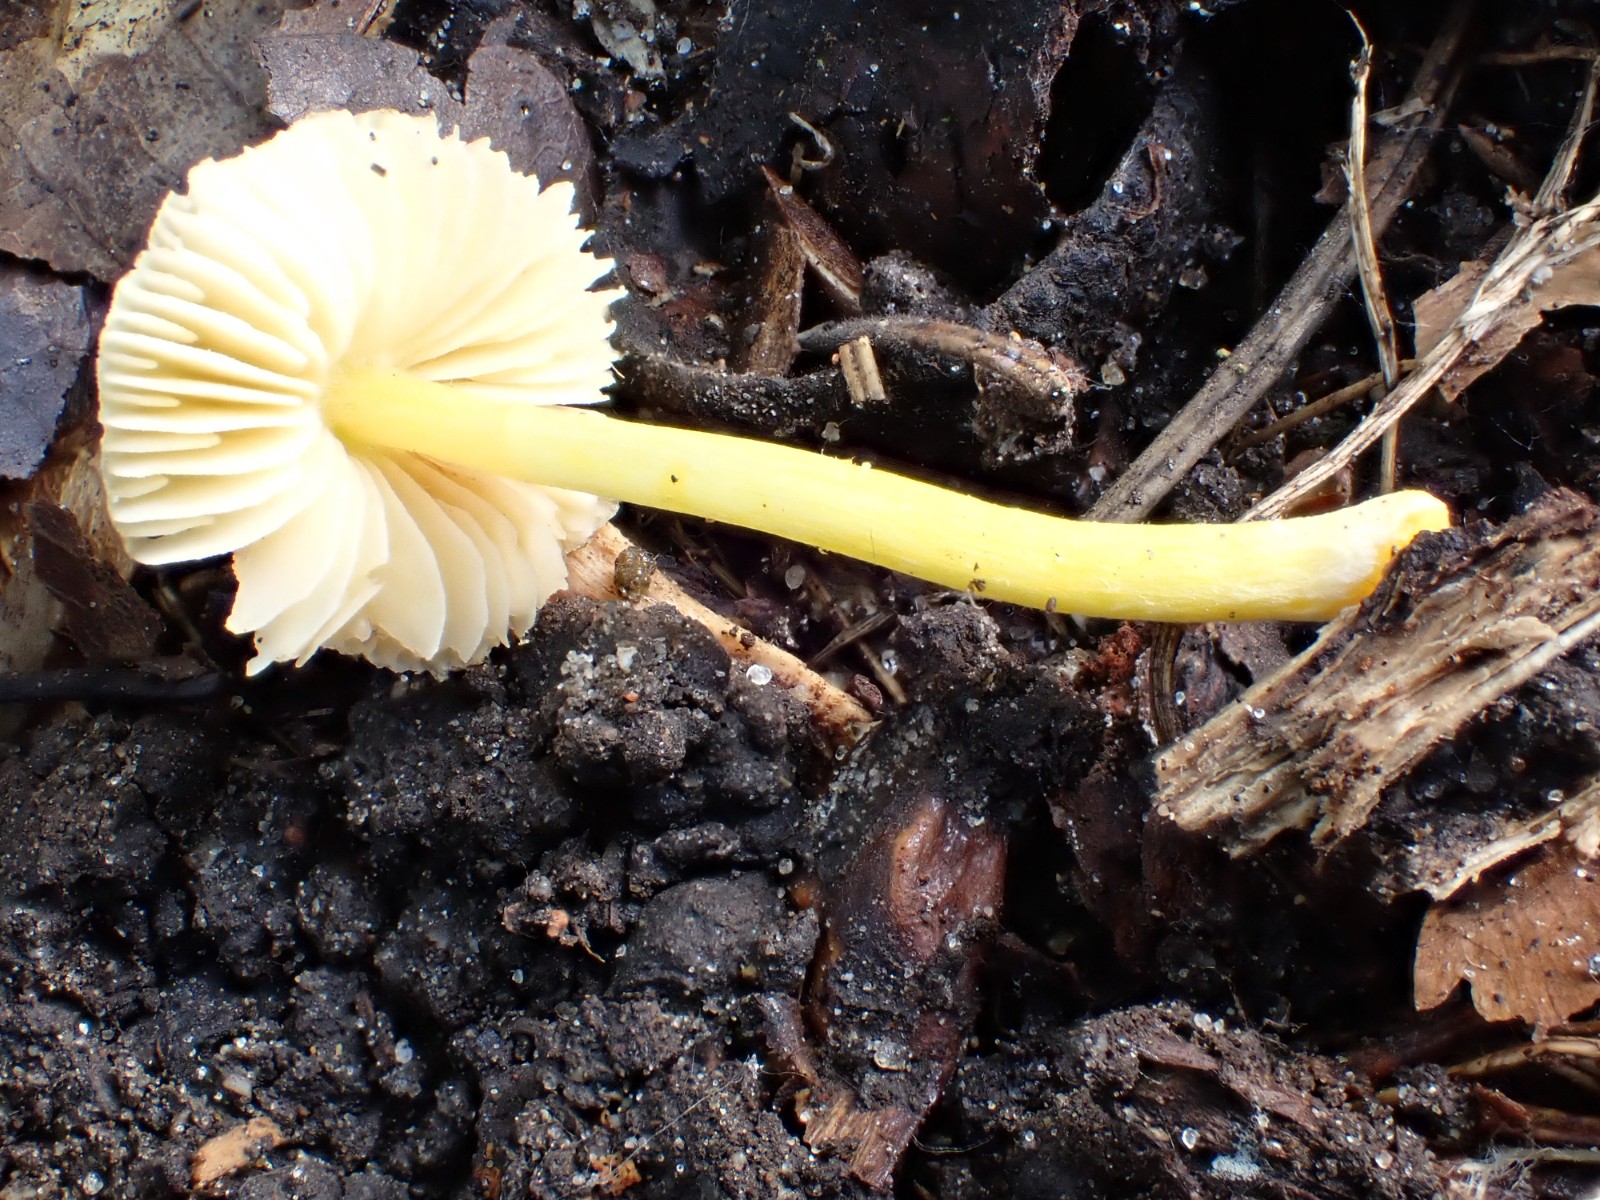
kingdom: Fungi
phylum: Basidiomycota
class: Agaricomycetes
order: Agaricales
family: Pluteaceae
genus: Pluteus
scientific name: Pluteus romellii
